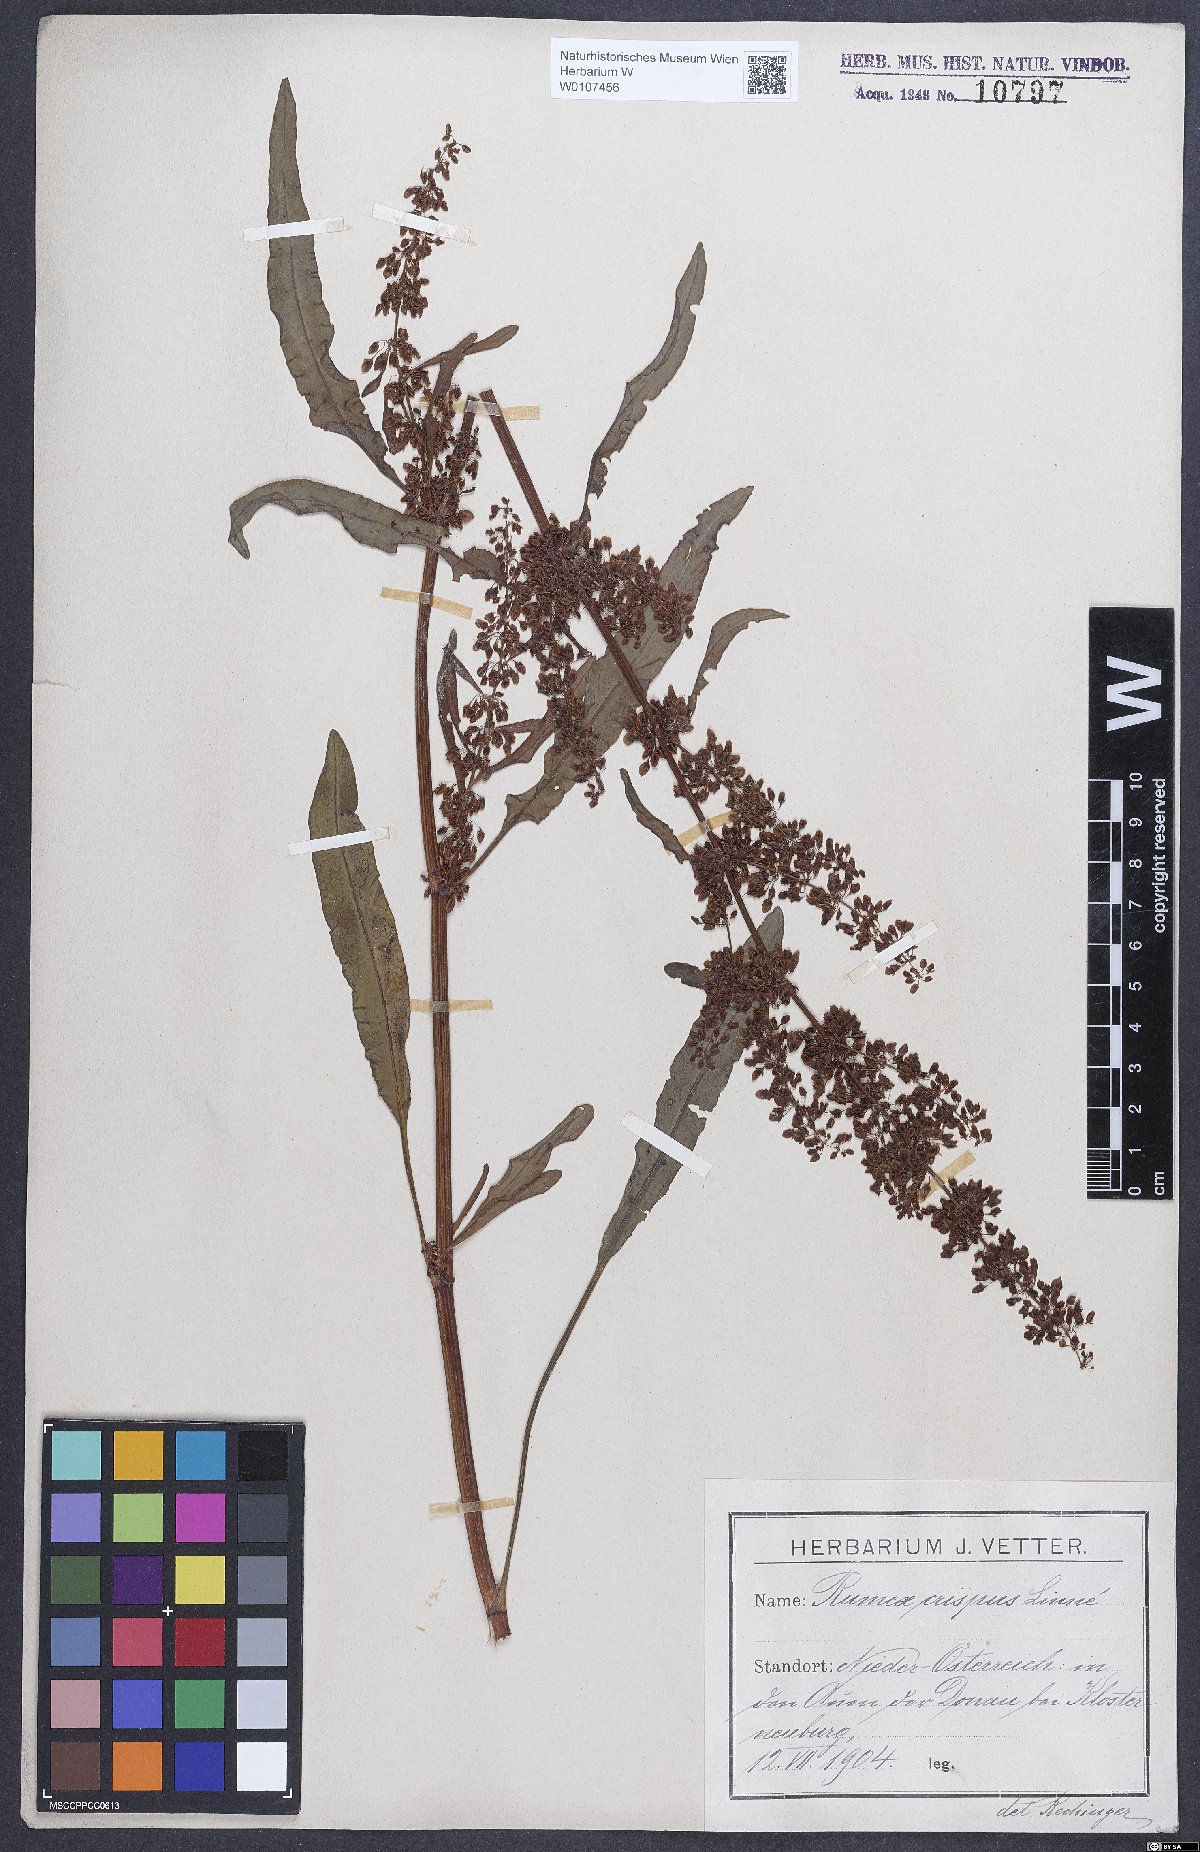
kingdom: Plantae
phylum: Tracheophyta
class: Magnoliopsida
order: Caryophyllales
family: Polygonaceae
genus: Rumex
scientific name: Rumex crispus
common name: Curled dock
